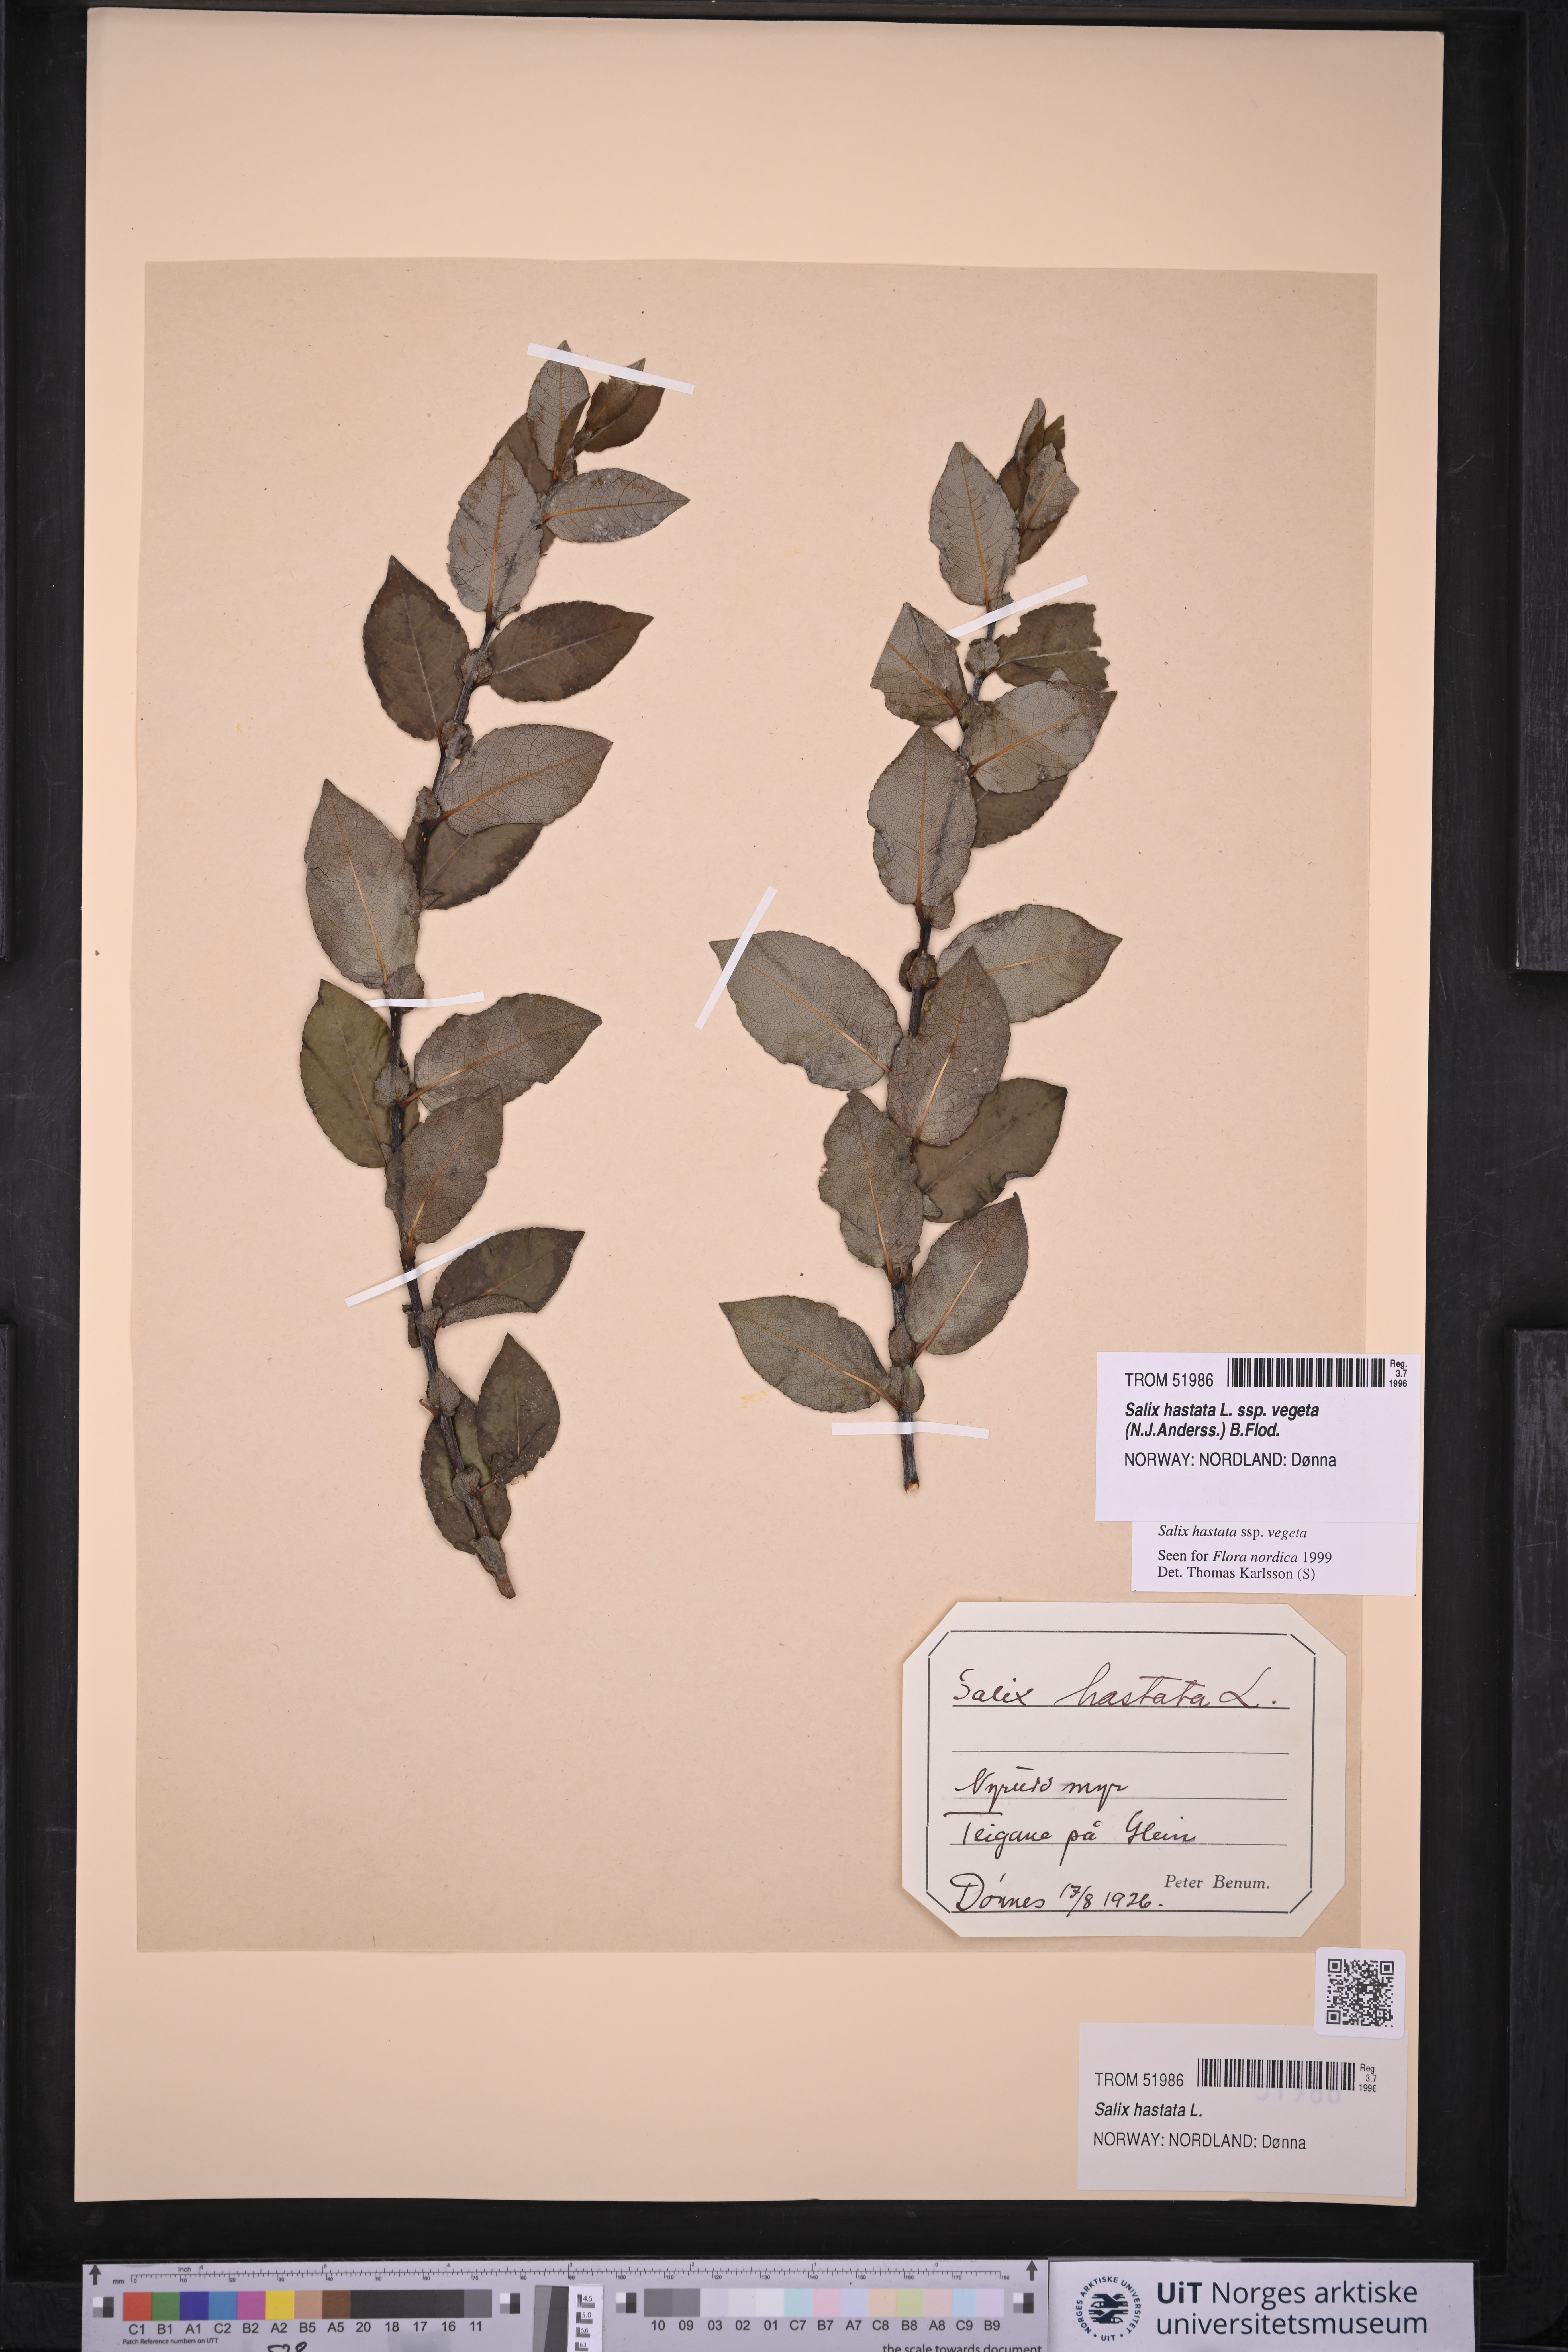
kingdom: Plantae
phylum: Tracheophyta
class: Magnoliopsida
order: Malpighiales
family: Salicaceae
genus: Salix
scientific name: Salix hastata
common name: Halberd willow
